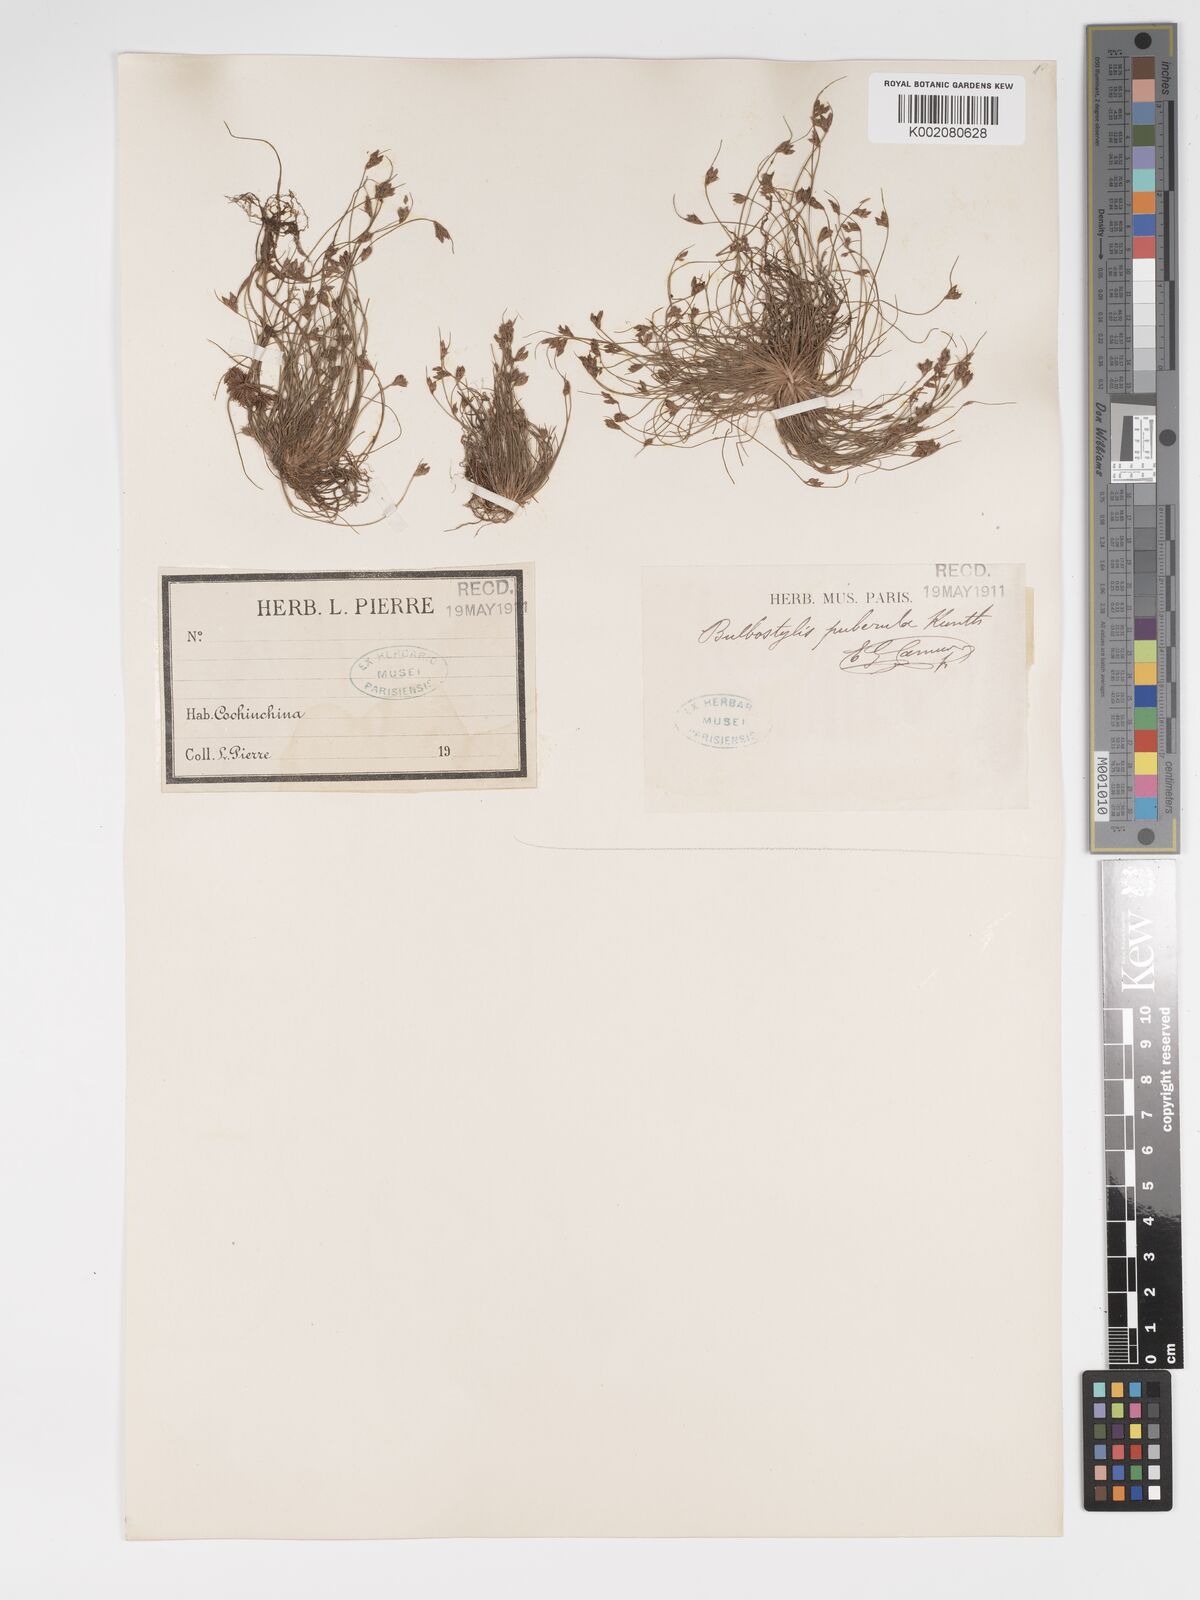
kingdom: Plantae
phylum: Tracheophyta
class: Liliopsida
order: Poales
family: Cyperaceae
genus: Bulbostylis
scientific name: Bulbostylis thouarsii
